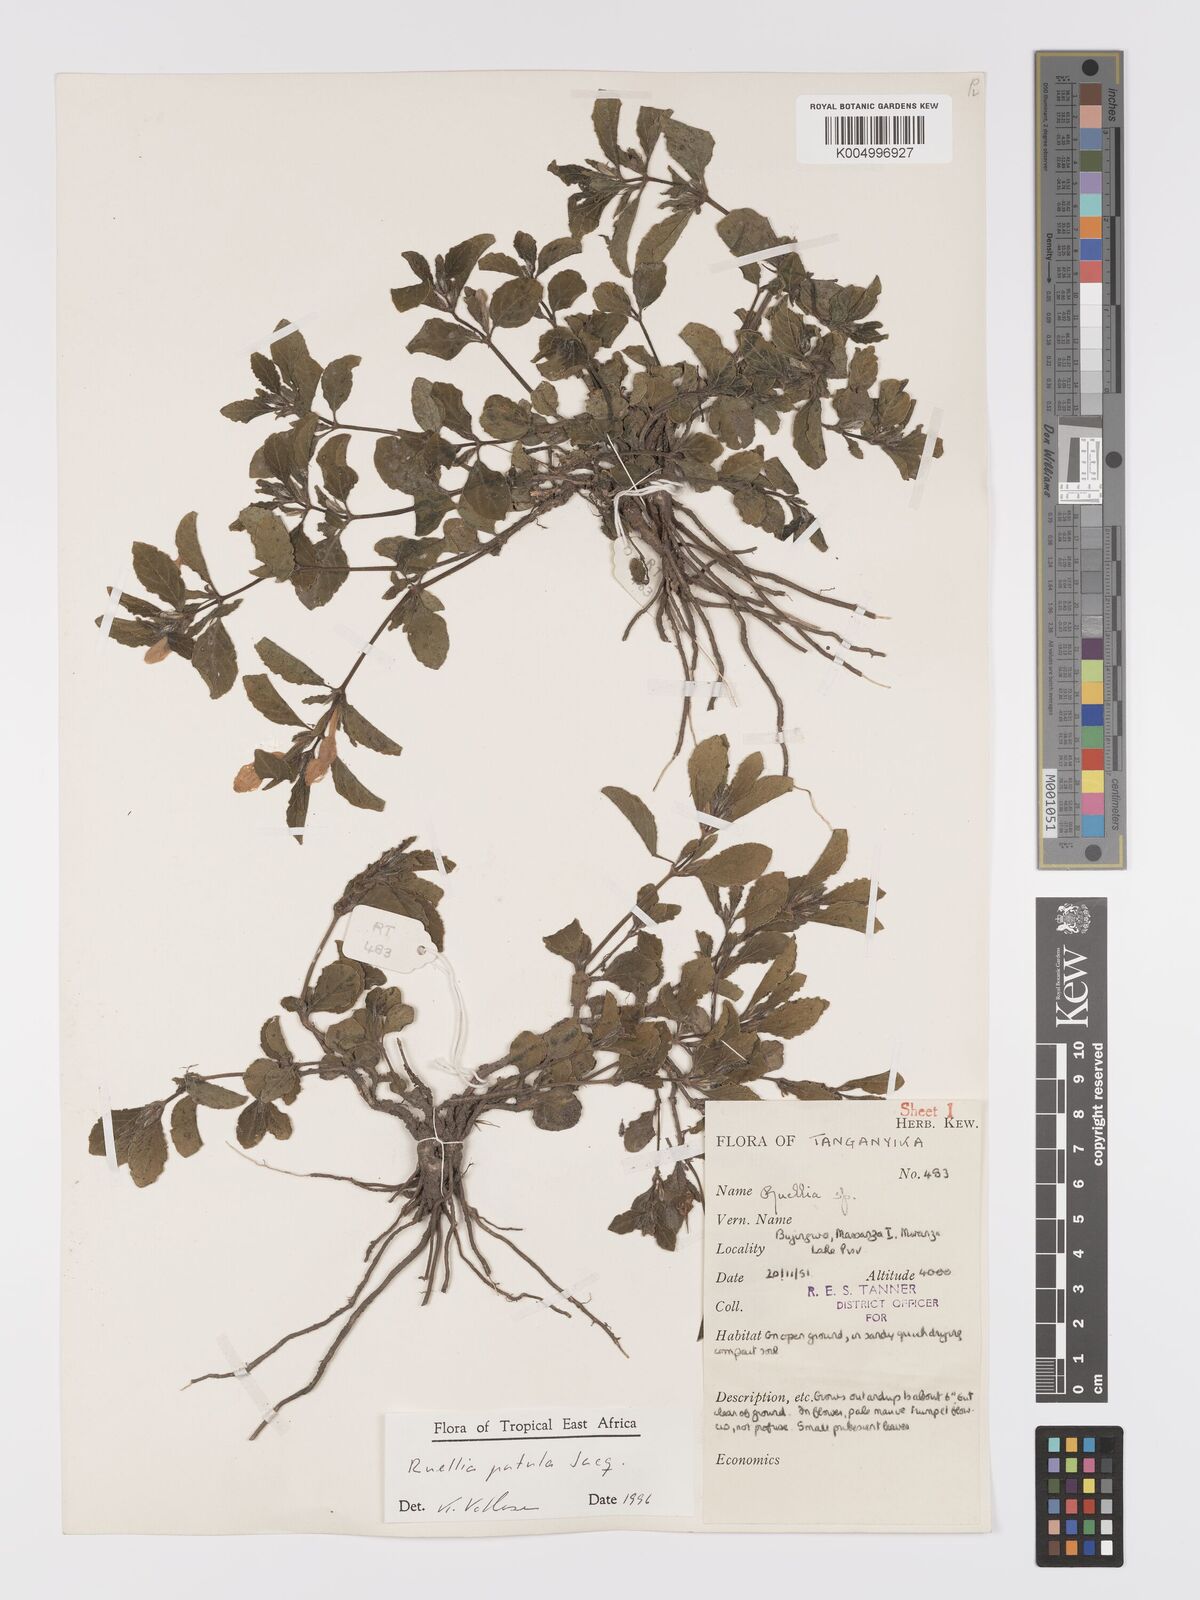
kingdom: Plantae
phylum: Tracheophyta
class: Magnoliopsida
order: Lamiales
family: Acanthaceae
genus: Ruellia
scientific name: Ruellia patula
